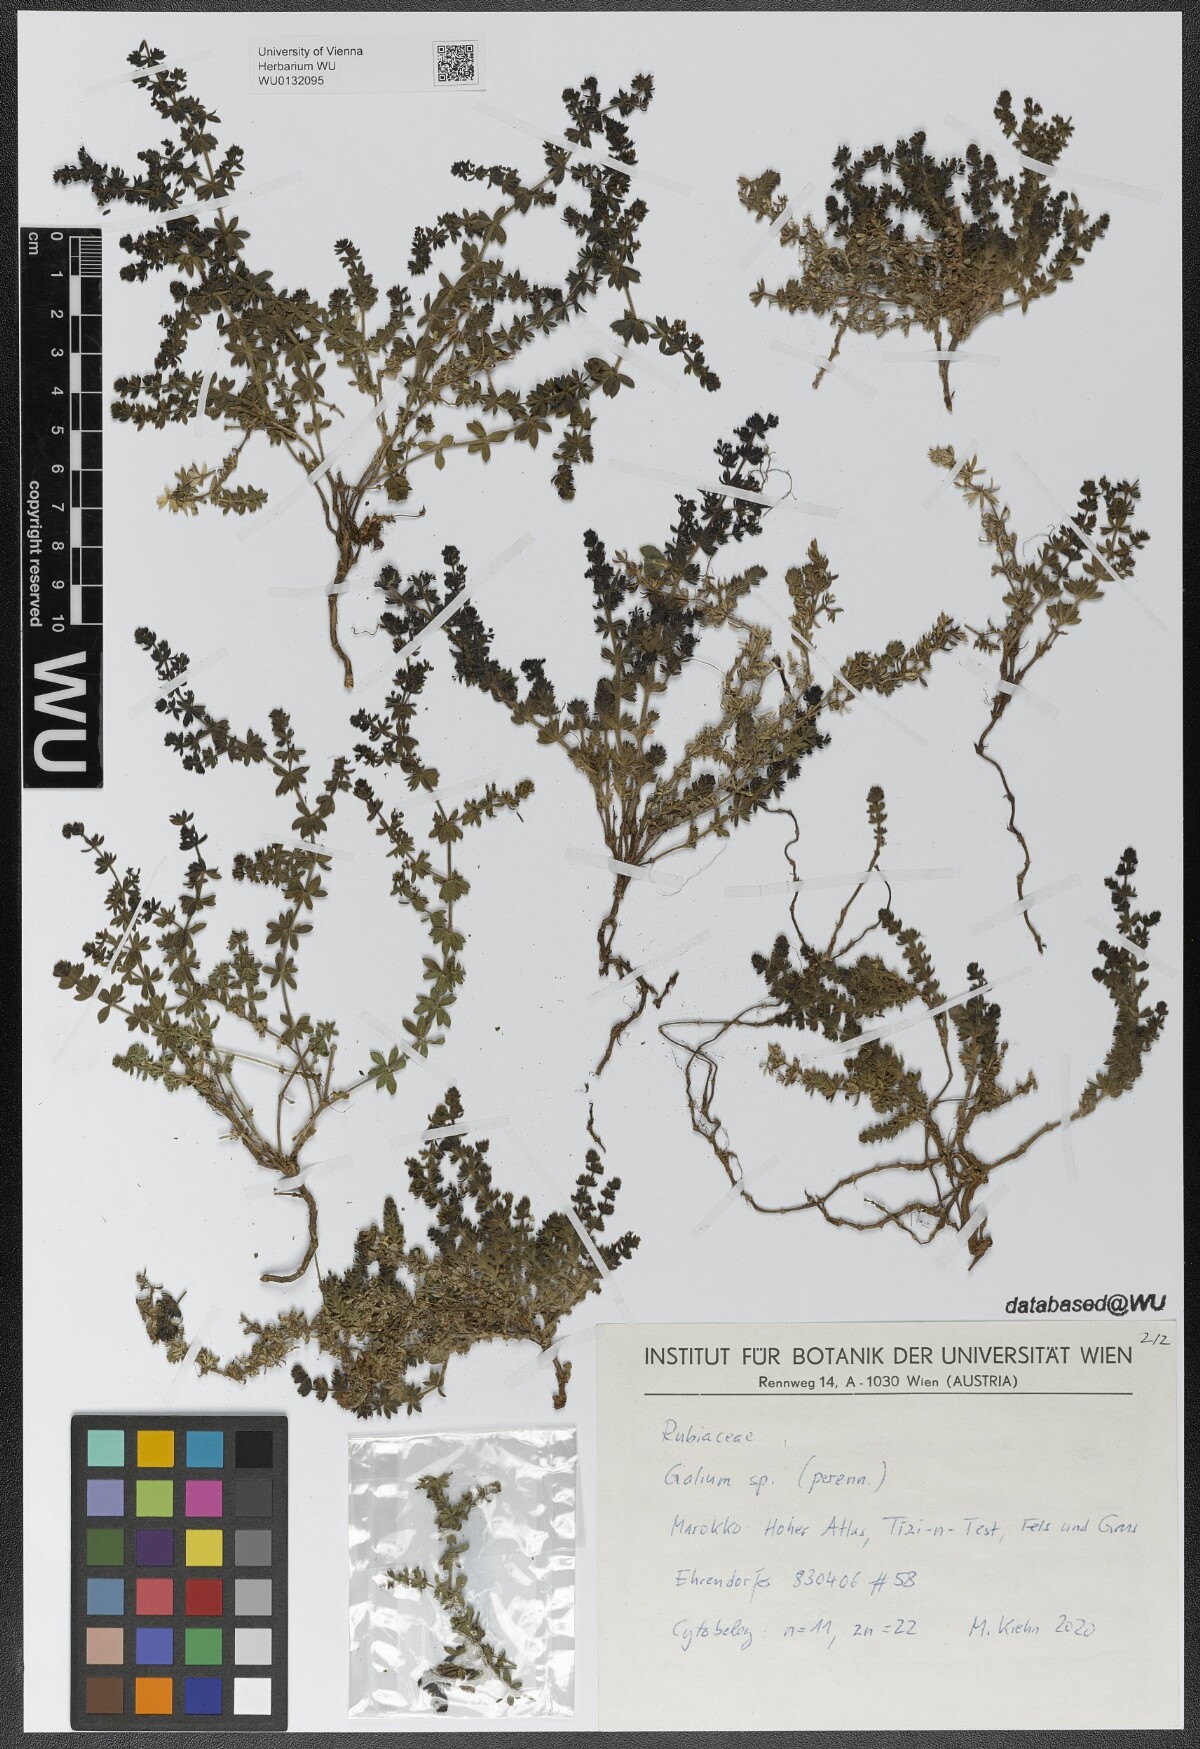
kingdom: Plantae
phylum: Tracheophyta
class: Magnoliopsida
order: Gentianales
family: Rubiaceae
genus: Galium
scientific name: Galium bourgaeanum
